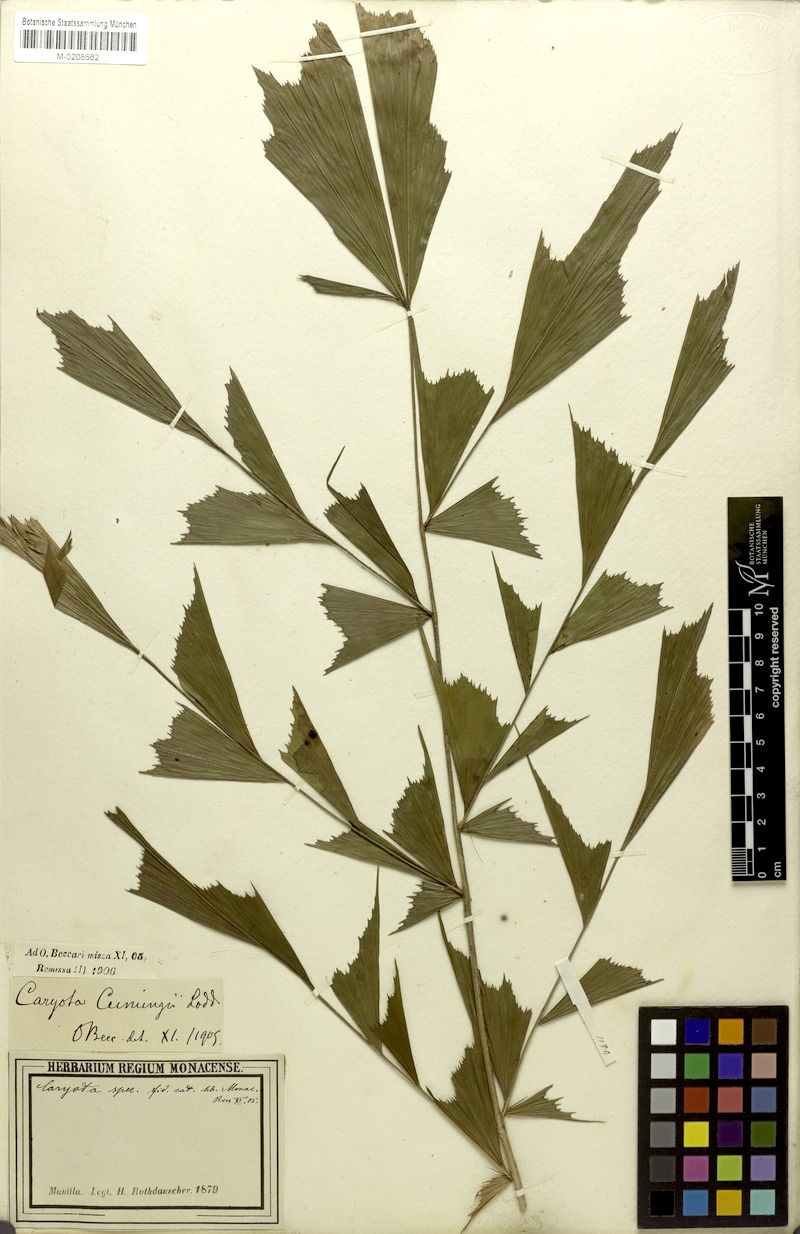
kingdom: Plantae
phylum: Tracheophyta
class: Liliopsida
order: Arecales
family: Arecaceae
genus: Caryota
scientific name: Caryota cumingii
